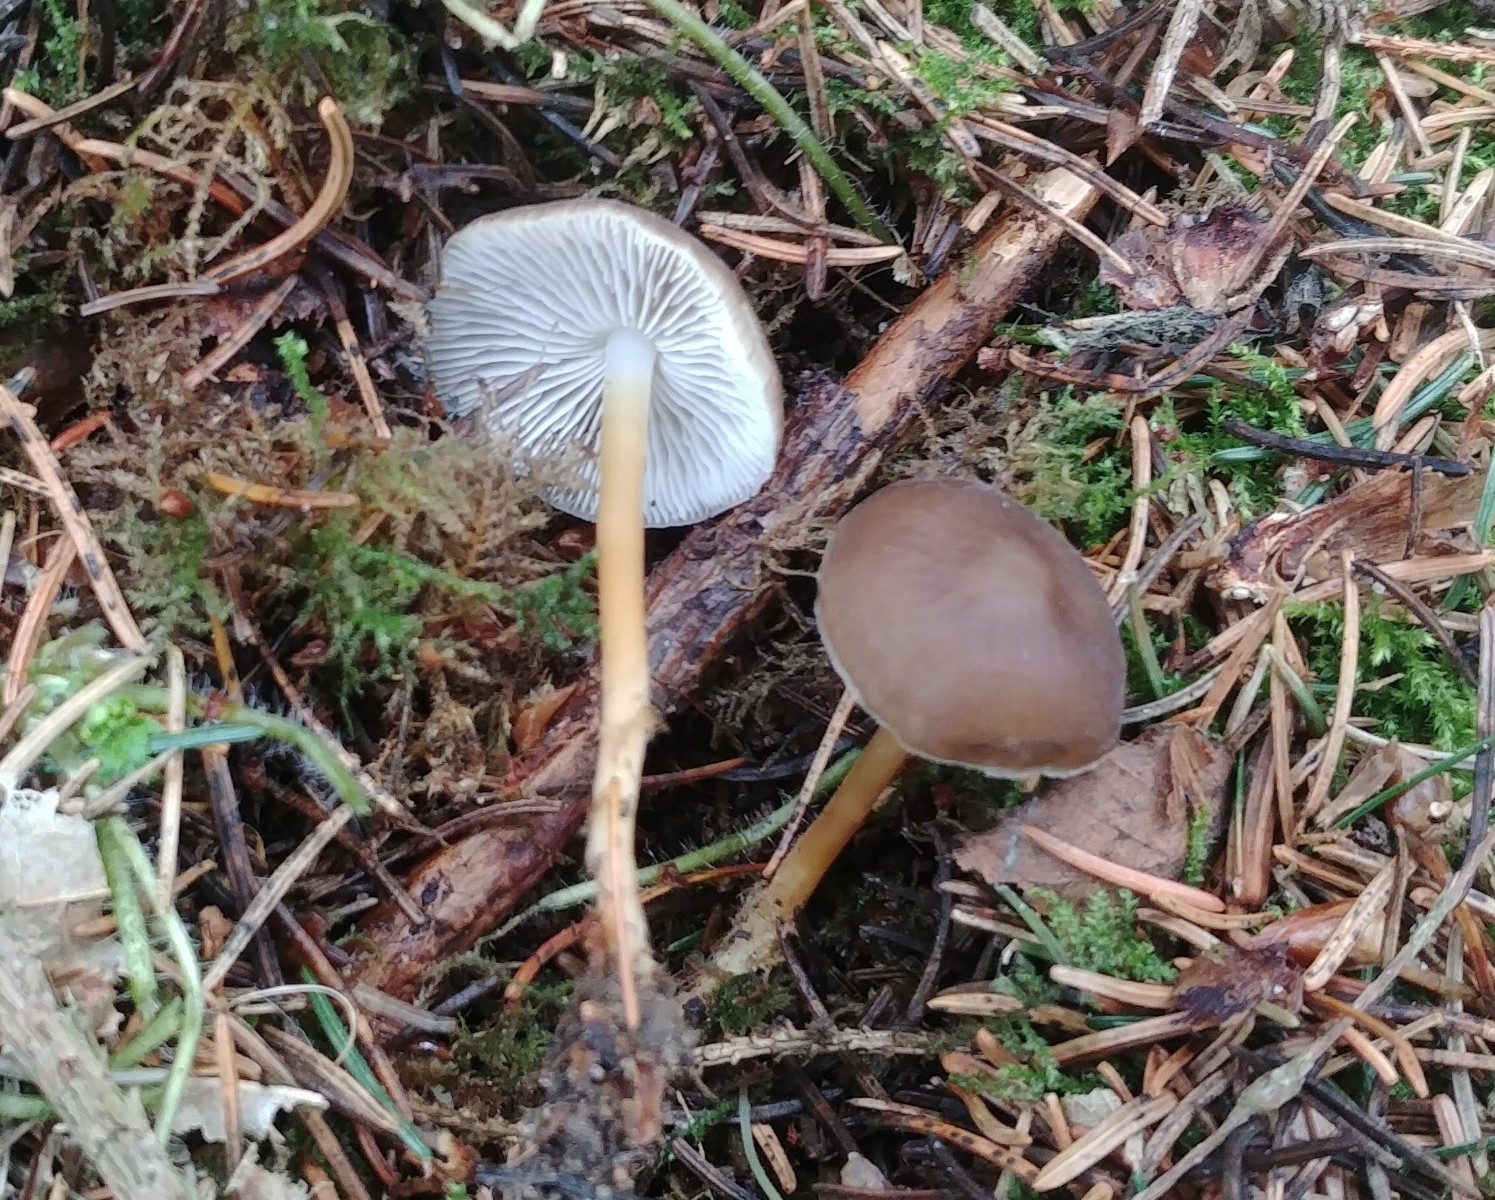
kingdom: Fungi
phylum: Basidiomycota
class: Agaricomycetes
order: Agaricales
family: Physalacriaceae
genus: Strobilurus
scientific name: Strobilurus esculentus
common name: gran-koglehat
